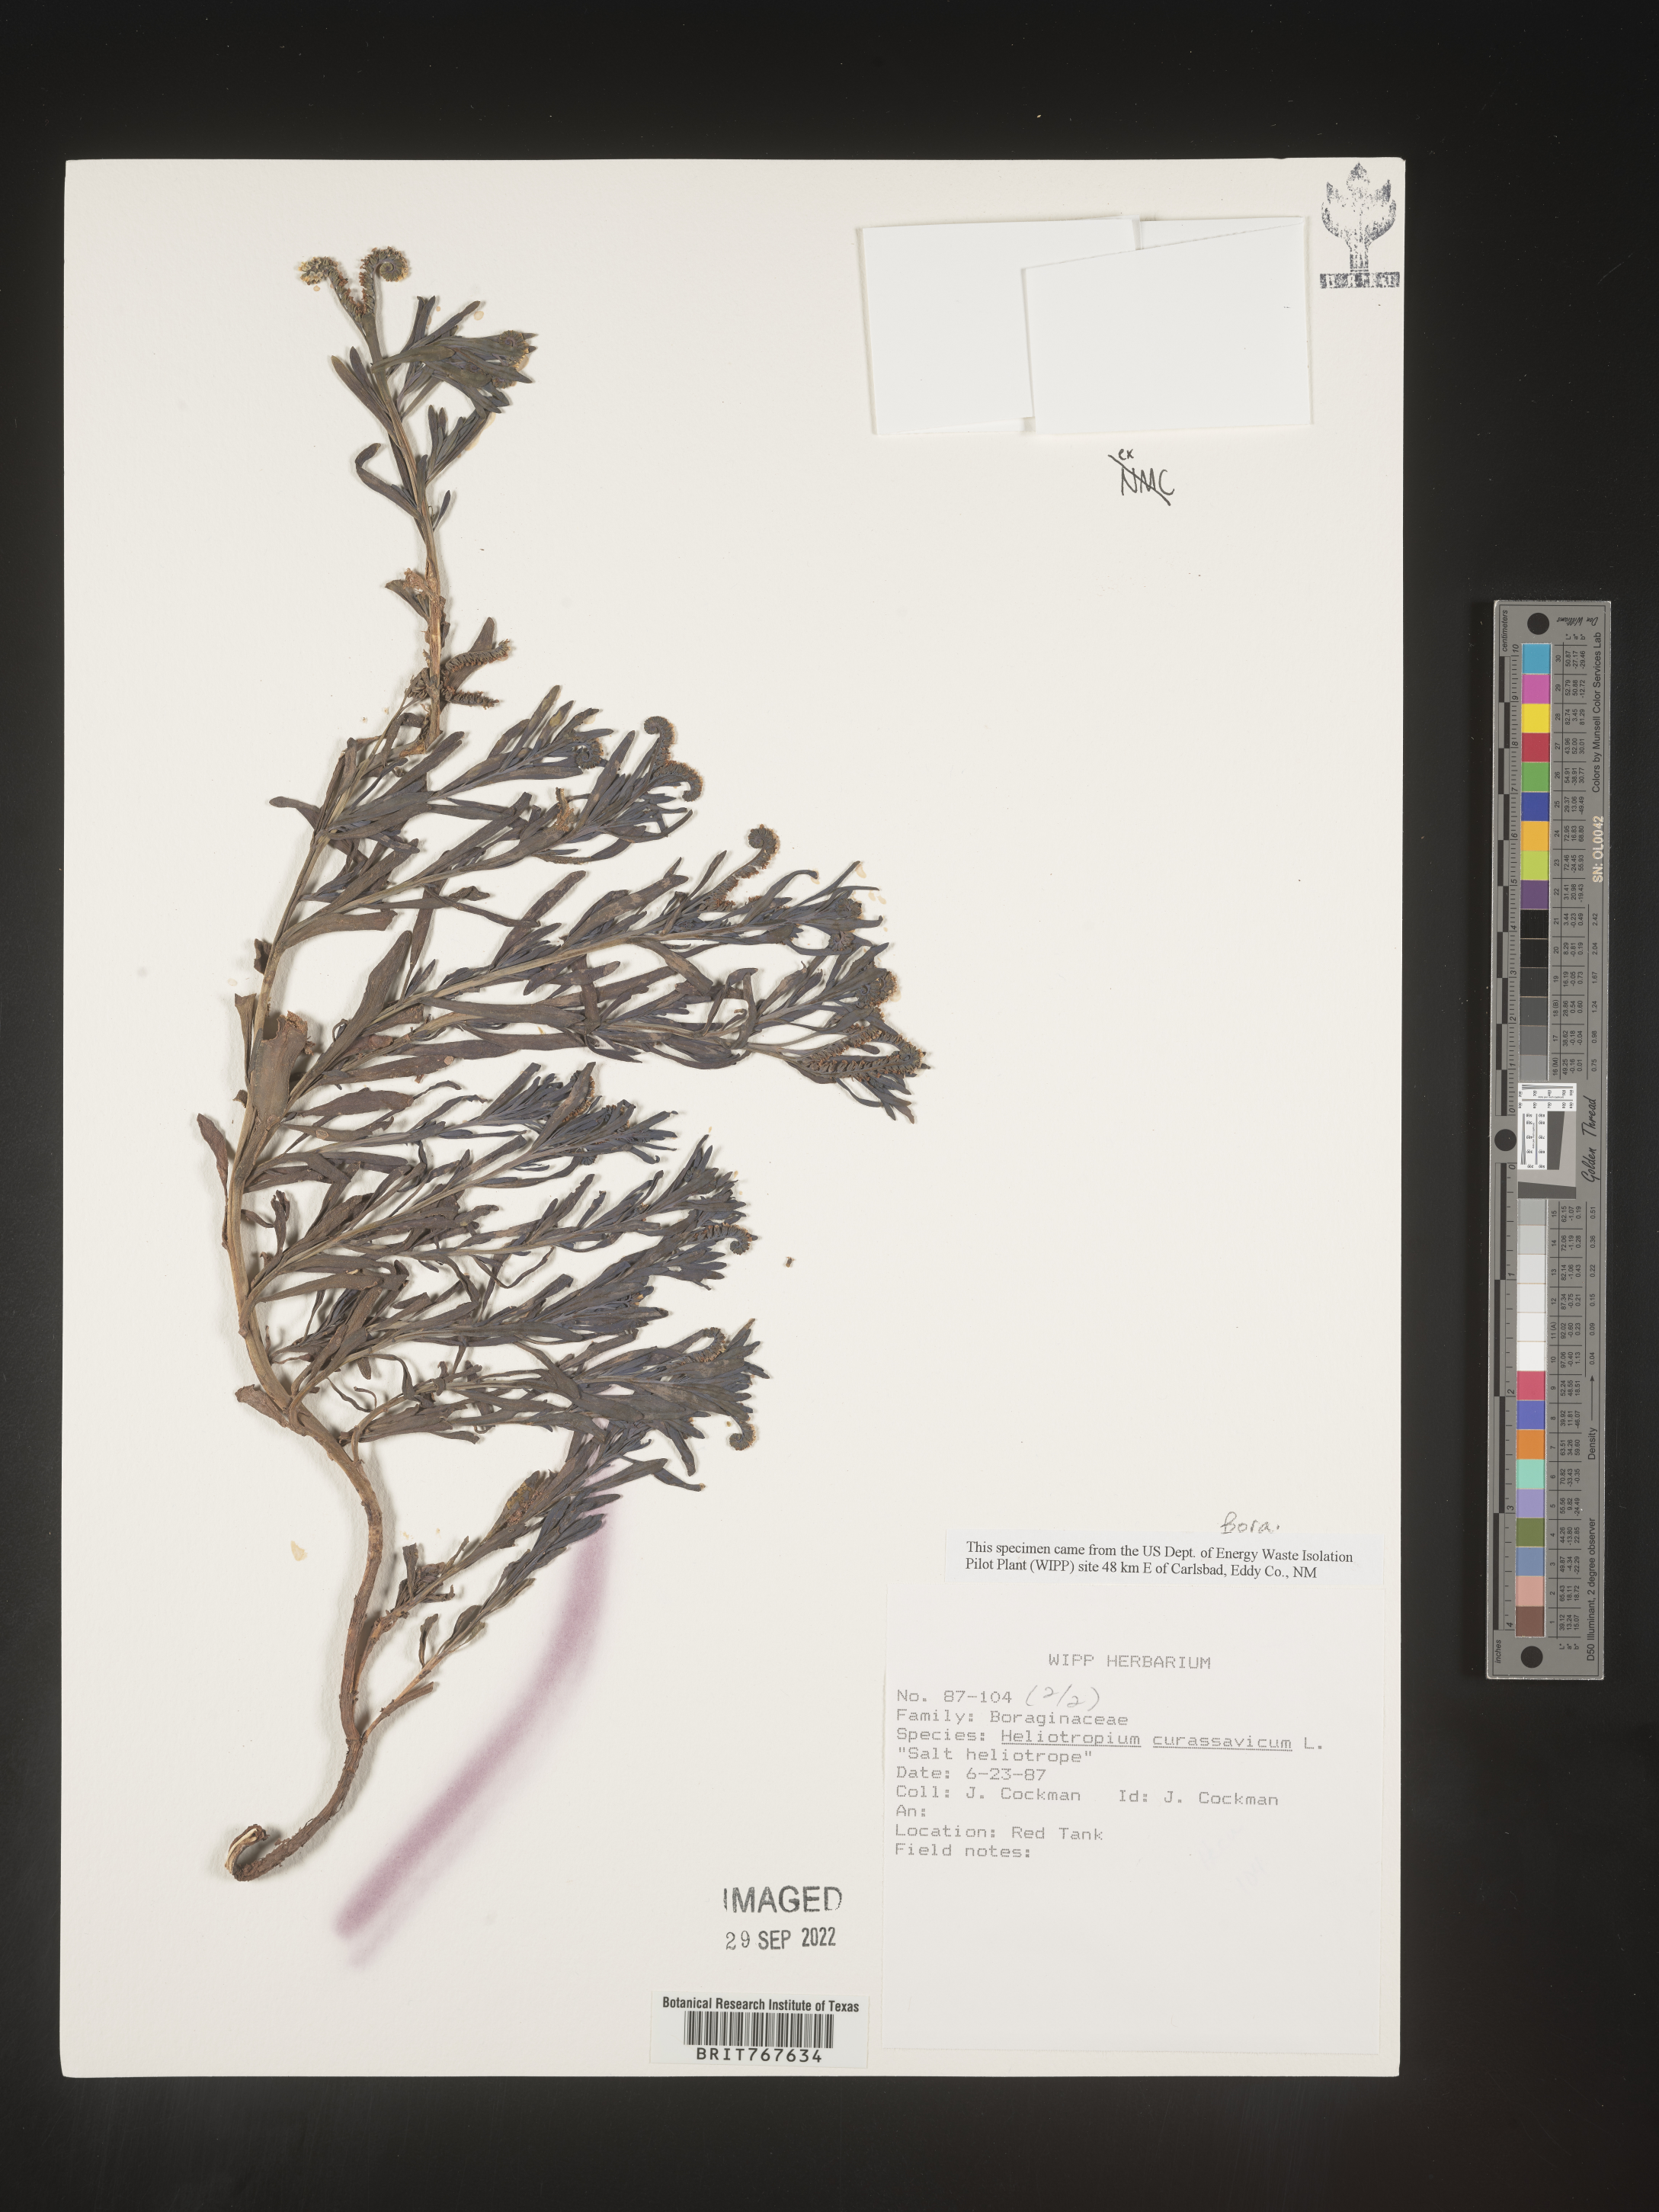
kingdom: Plantae
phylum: Tracheophyta
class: Magnoliopsida
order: Boraginales
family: Heliotropiaceae
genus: Heliotropium
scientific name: Heliotropium curassavicum
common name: Seaside heliotrope
